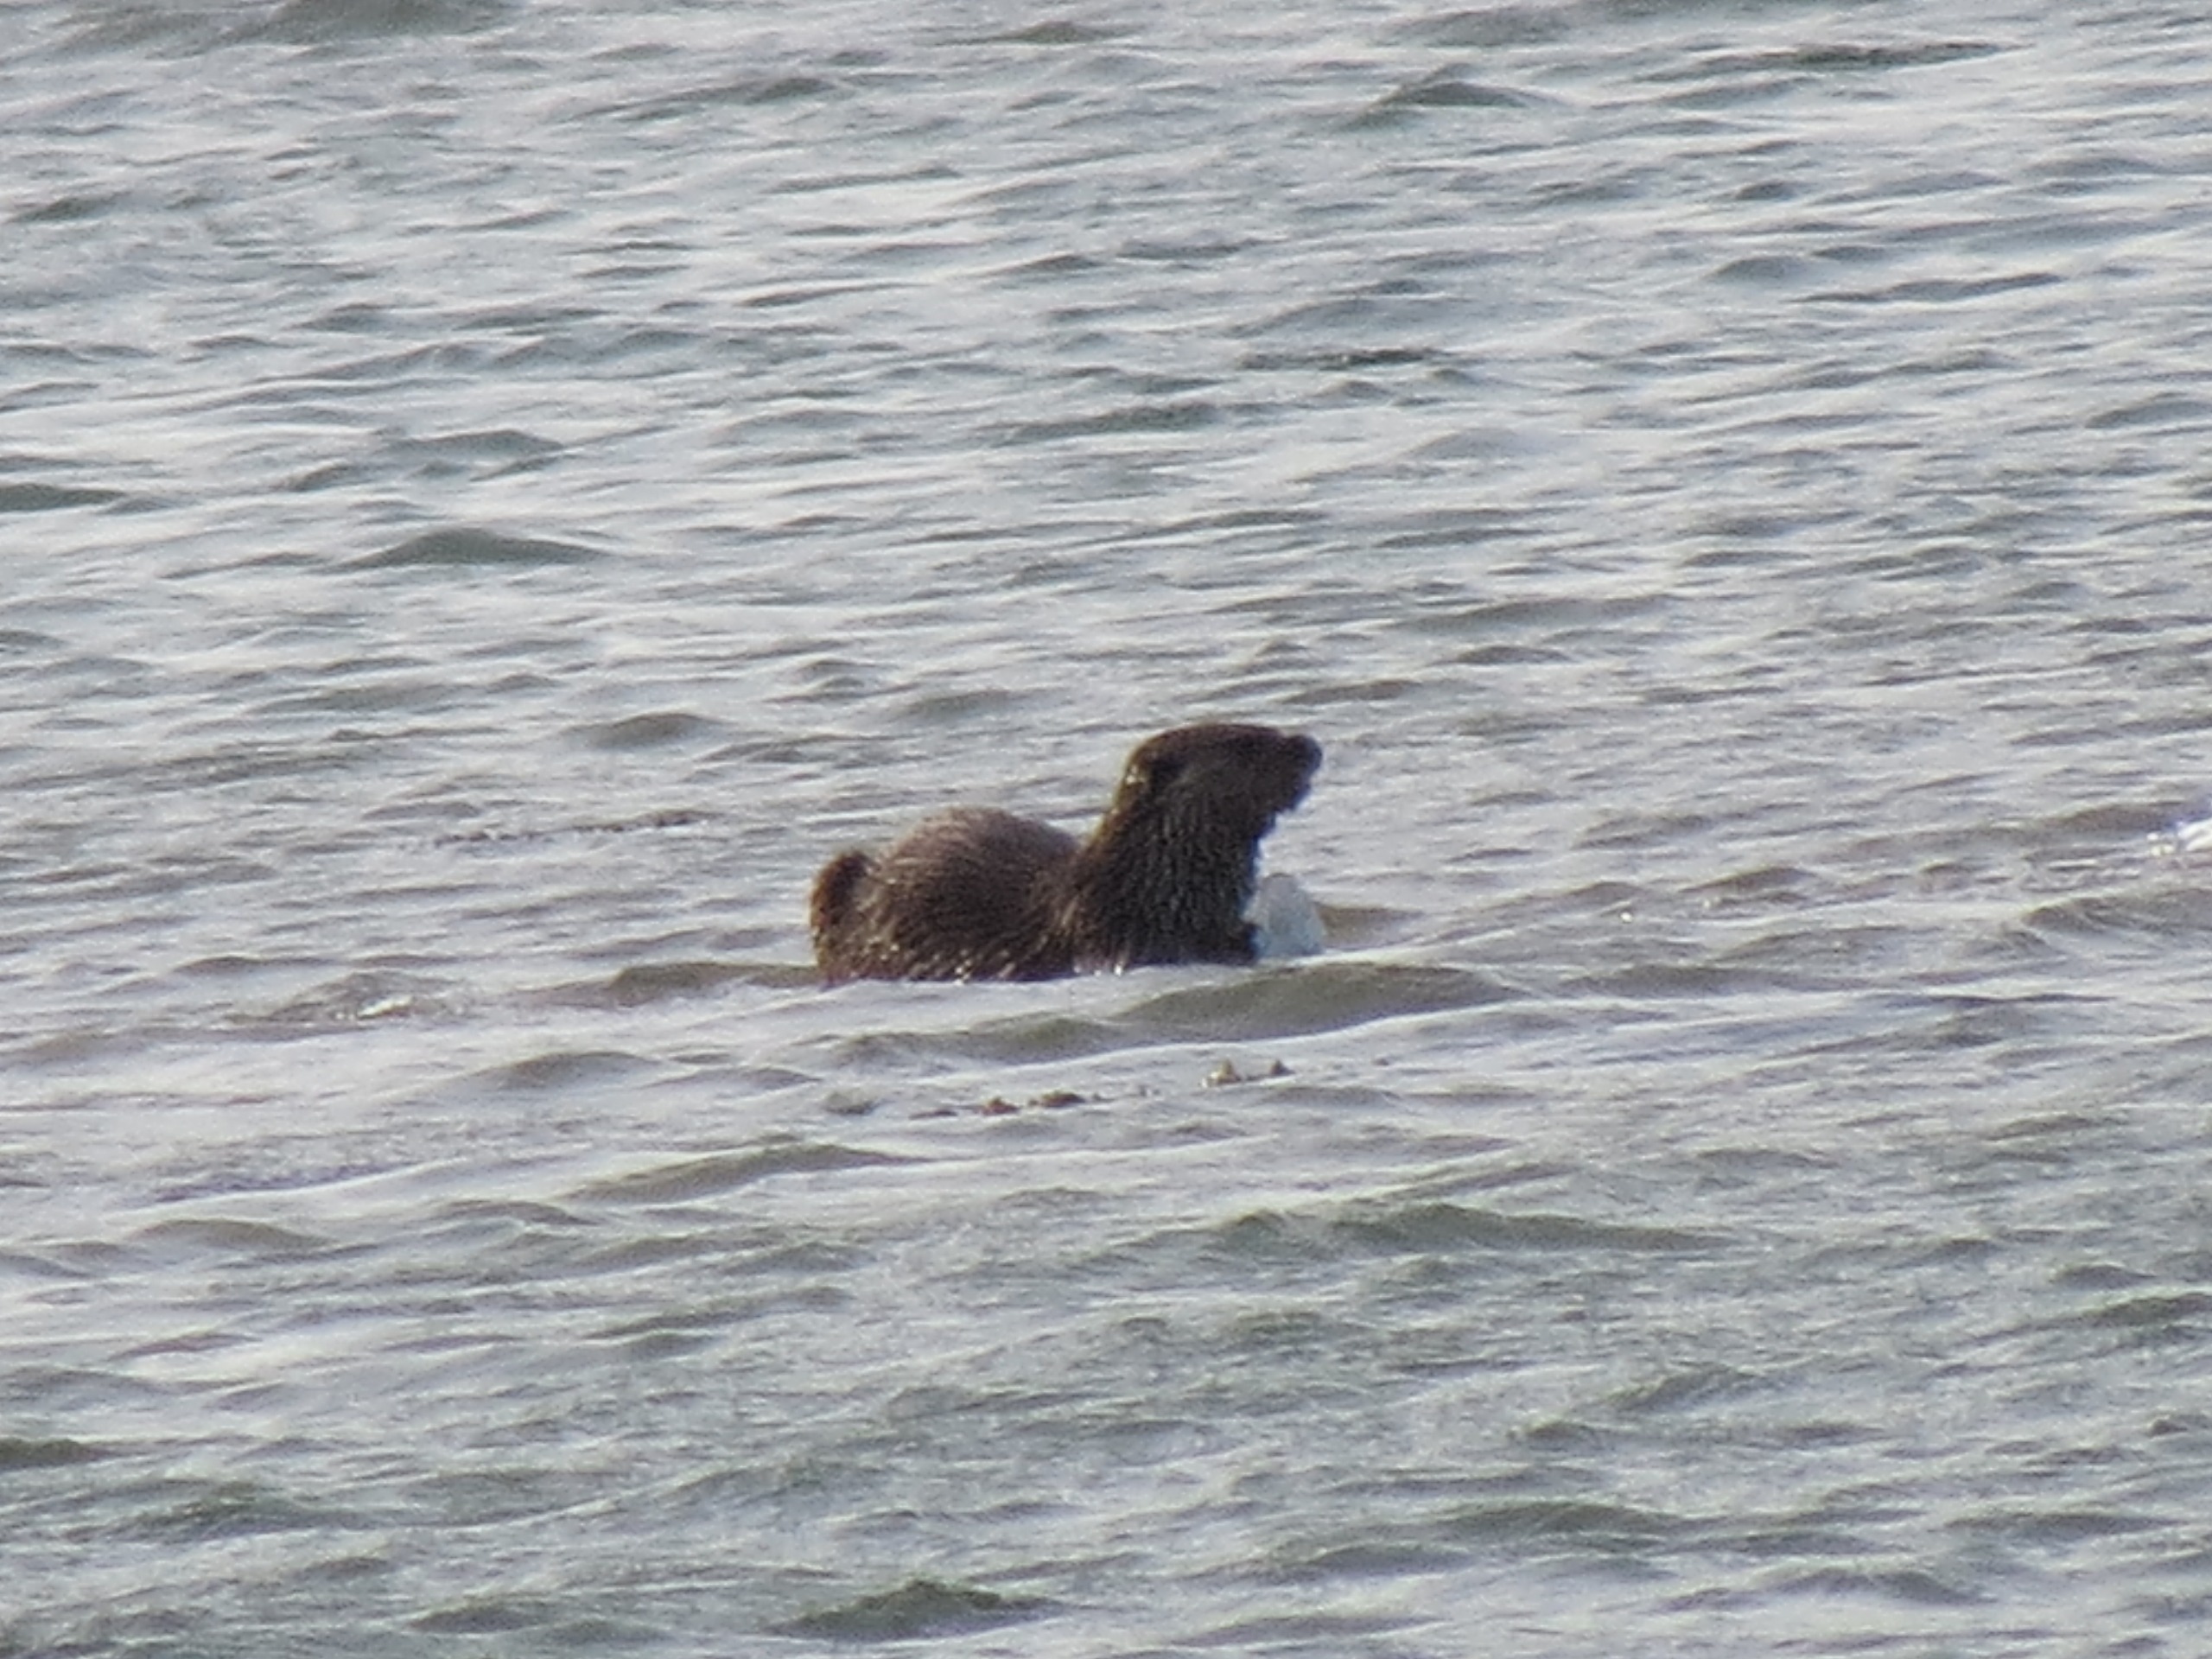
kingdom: Animalia
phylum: Chordata
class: Mammalia
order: Carnivora
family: Mustelidae
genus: Lutra
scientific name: Lutra lutra
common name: Odder
